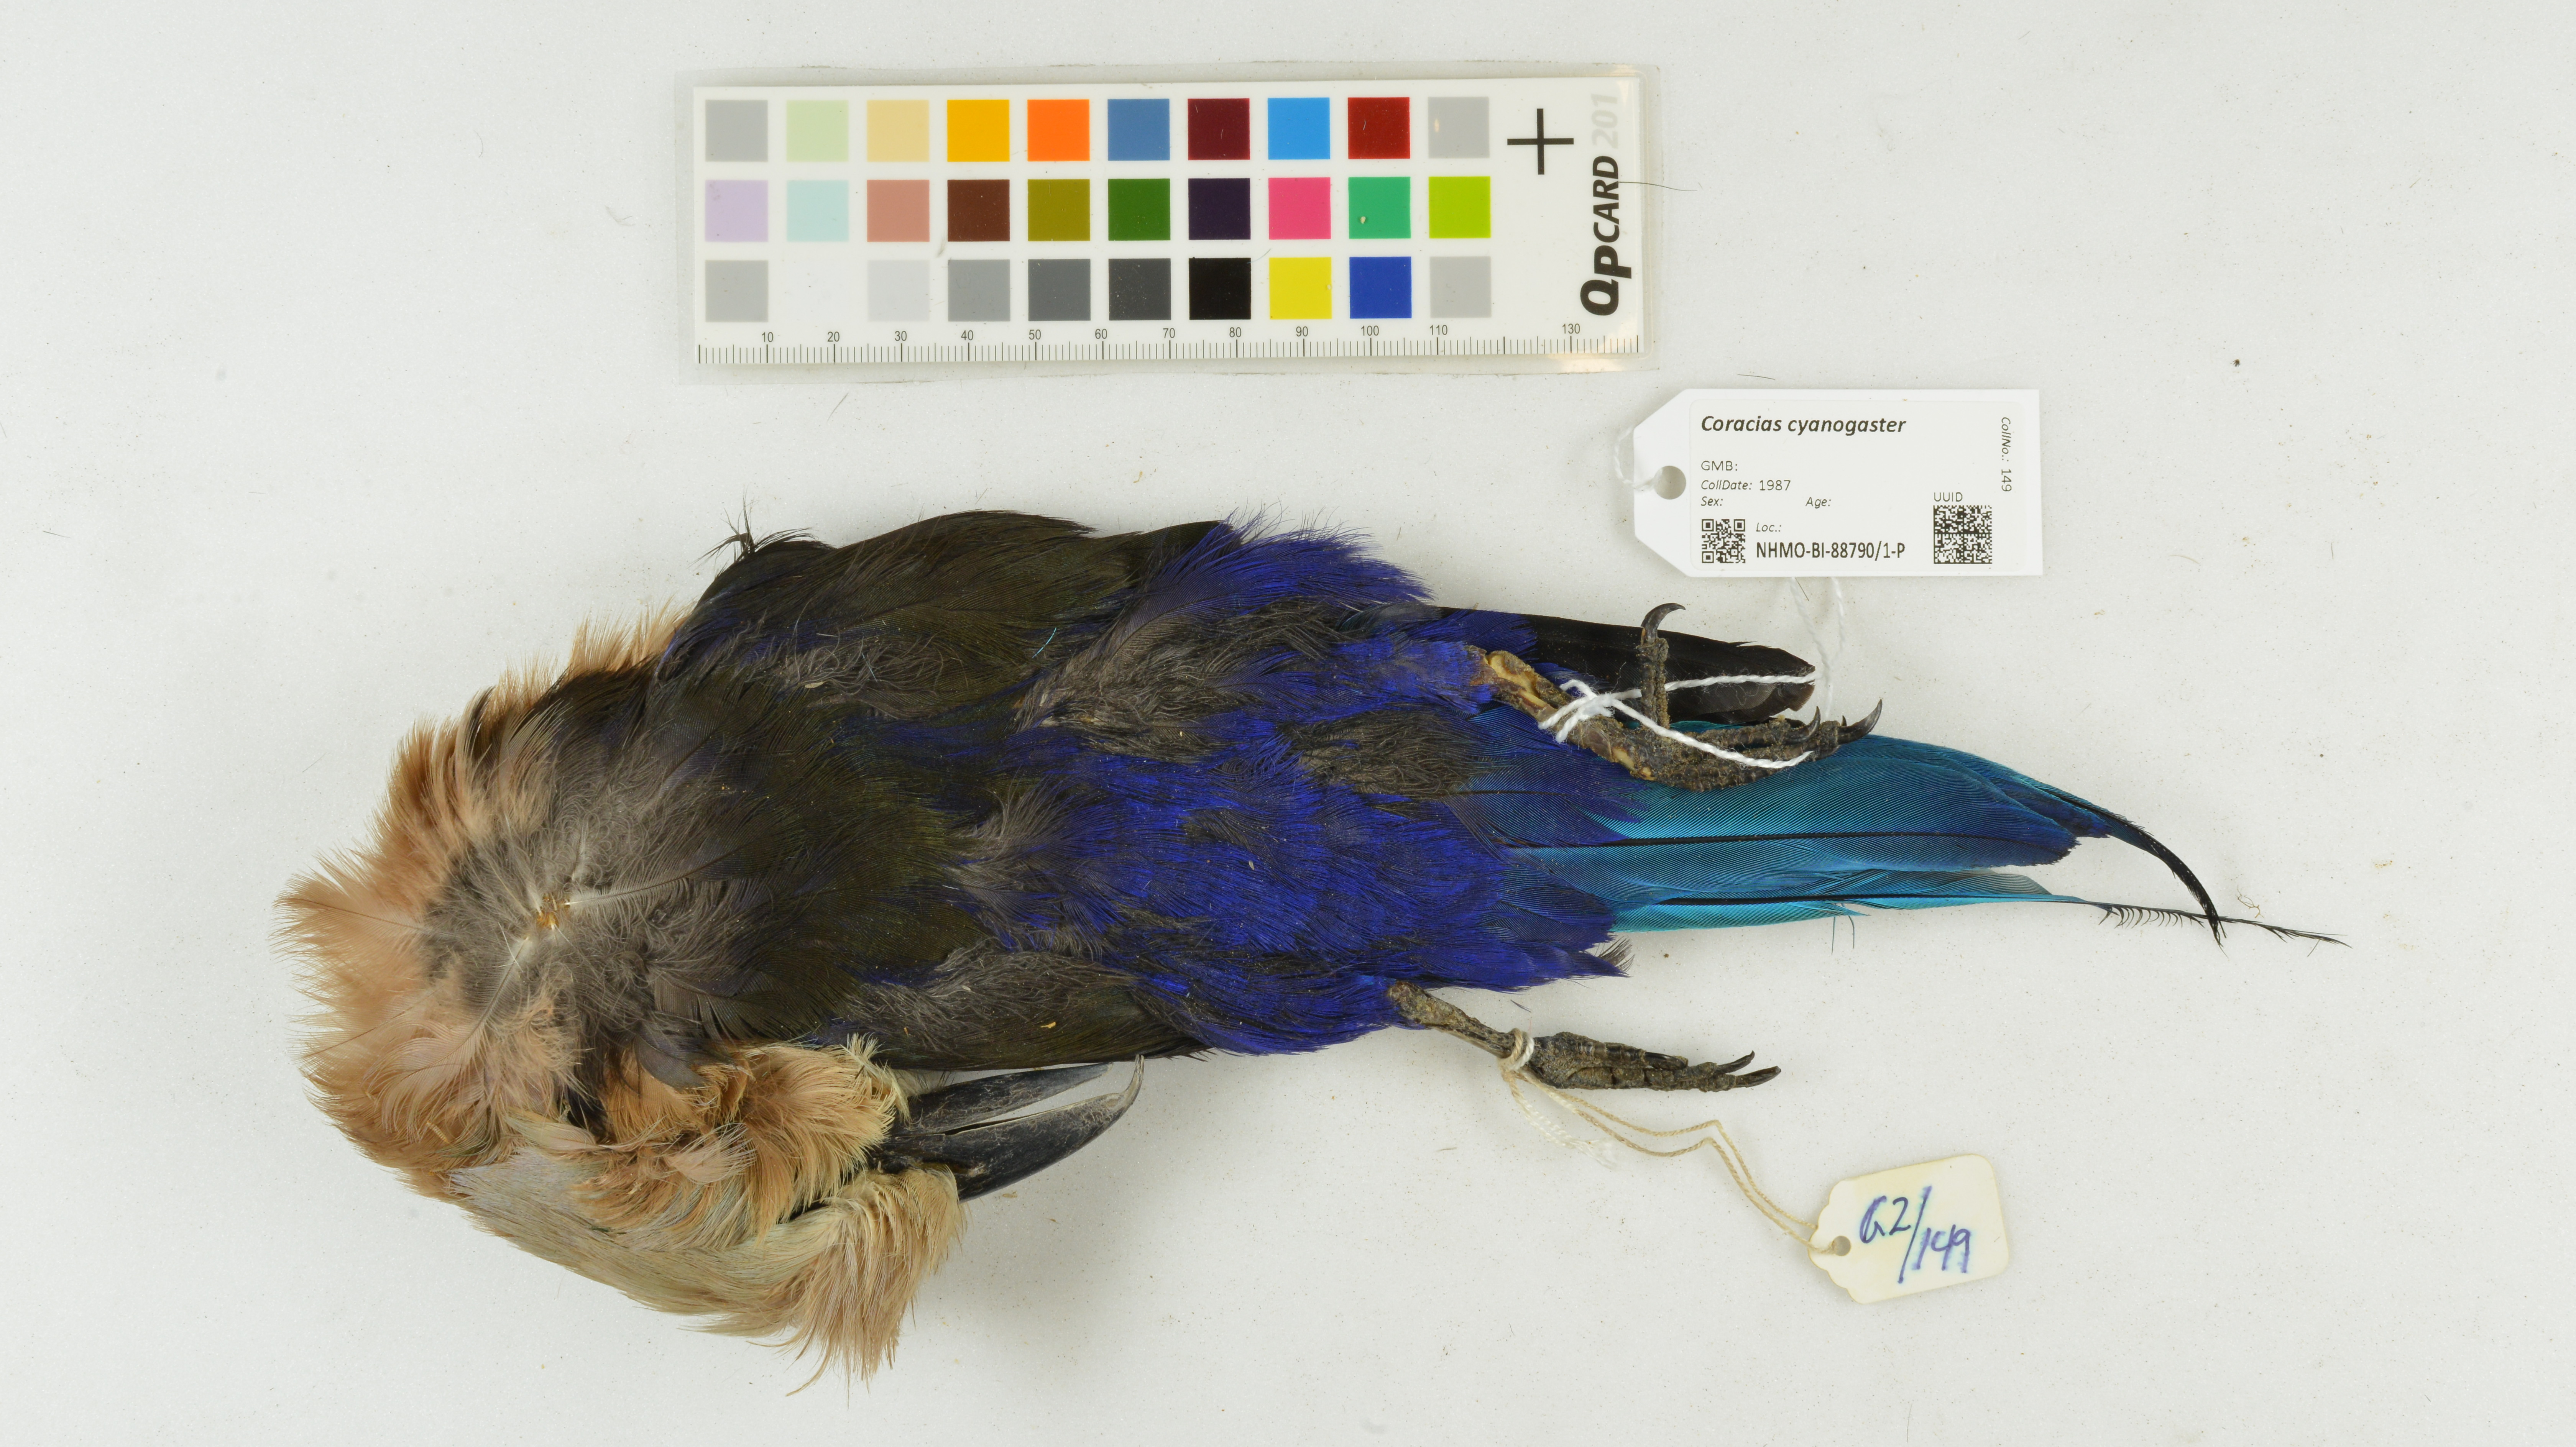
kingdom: Animalia
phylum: Chordata
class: Aves
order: Coraciiformes
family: Coraciidae
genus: Coracias
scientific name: Coracias cyanogaster
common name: Blue-bellied roller
